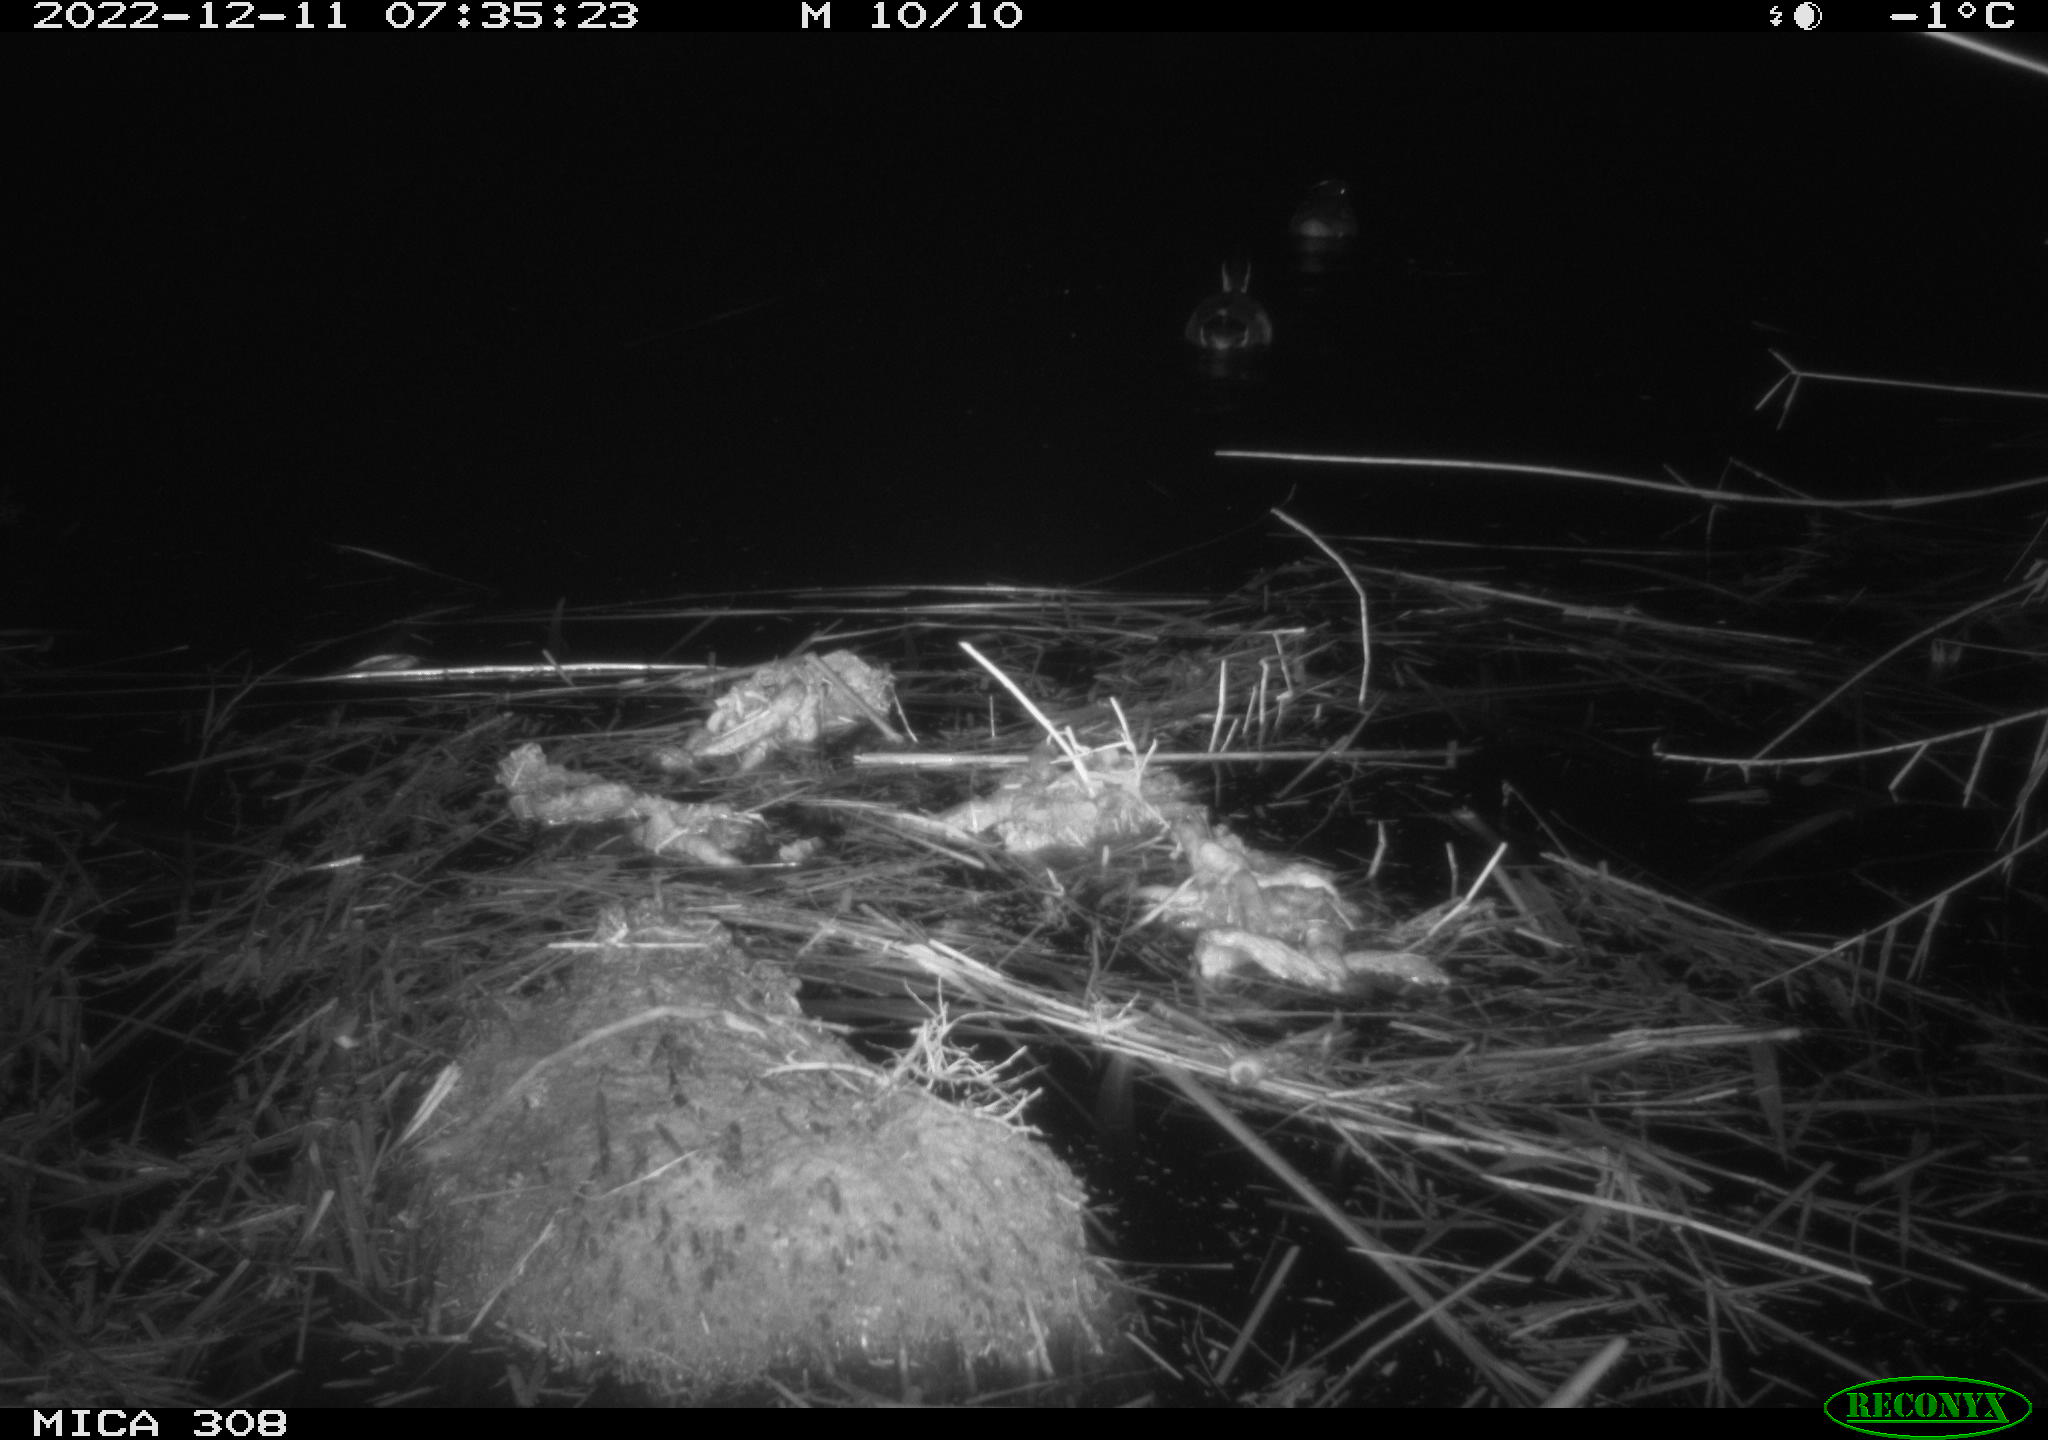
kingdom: Animalia
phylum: Chordata
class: Aves
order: Anseriformes
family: Anatidae
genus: Anas
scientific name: Anas
